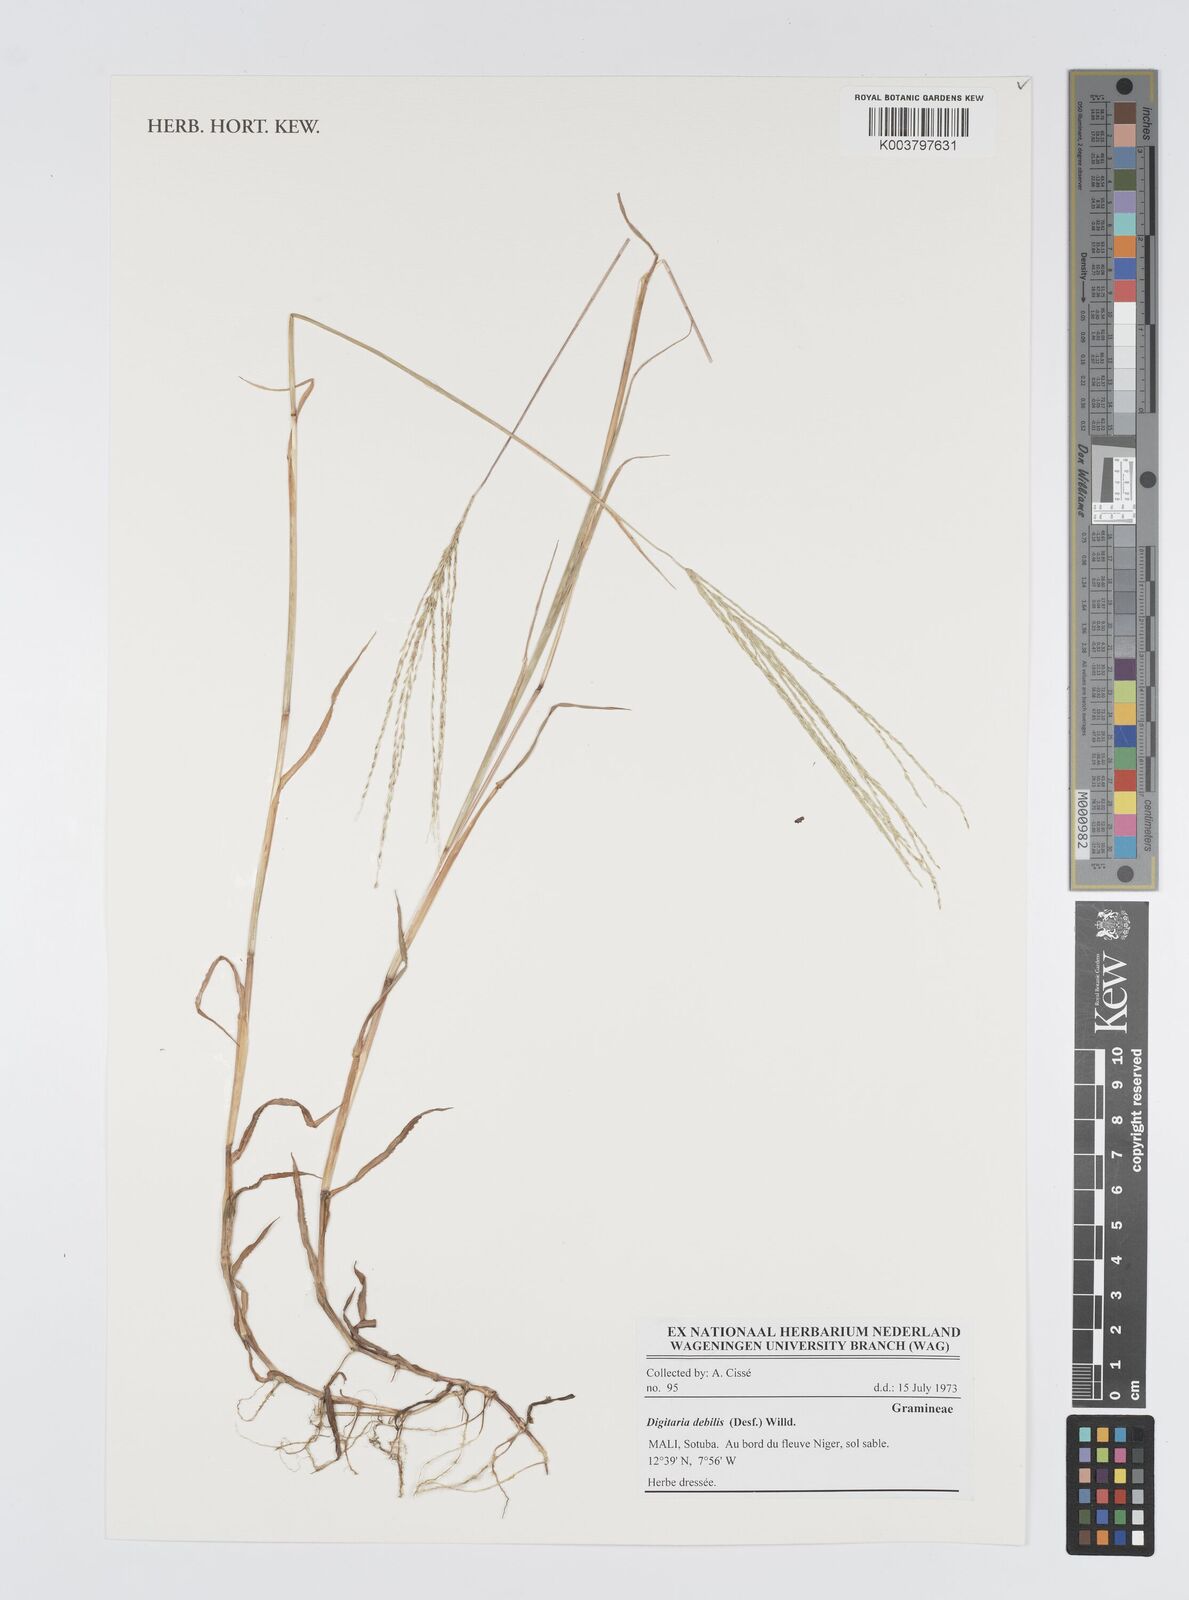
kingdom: Plantae
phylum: Tracheophyta
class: Liliopsida
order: Poales
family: Poaceae
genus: Digitaria
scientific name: Digitaria debilis
